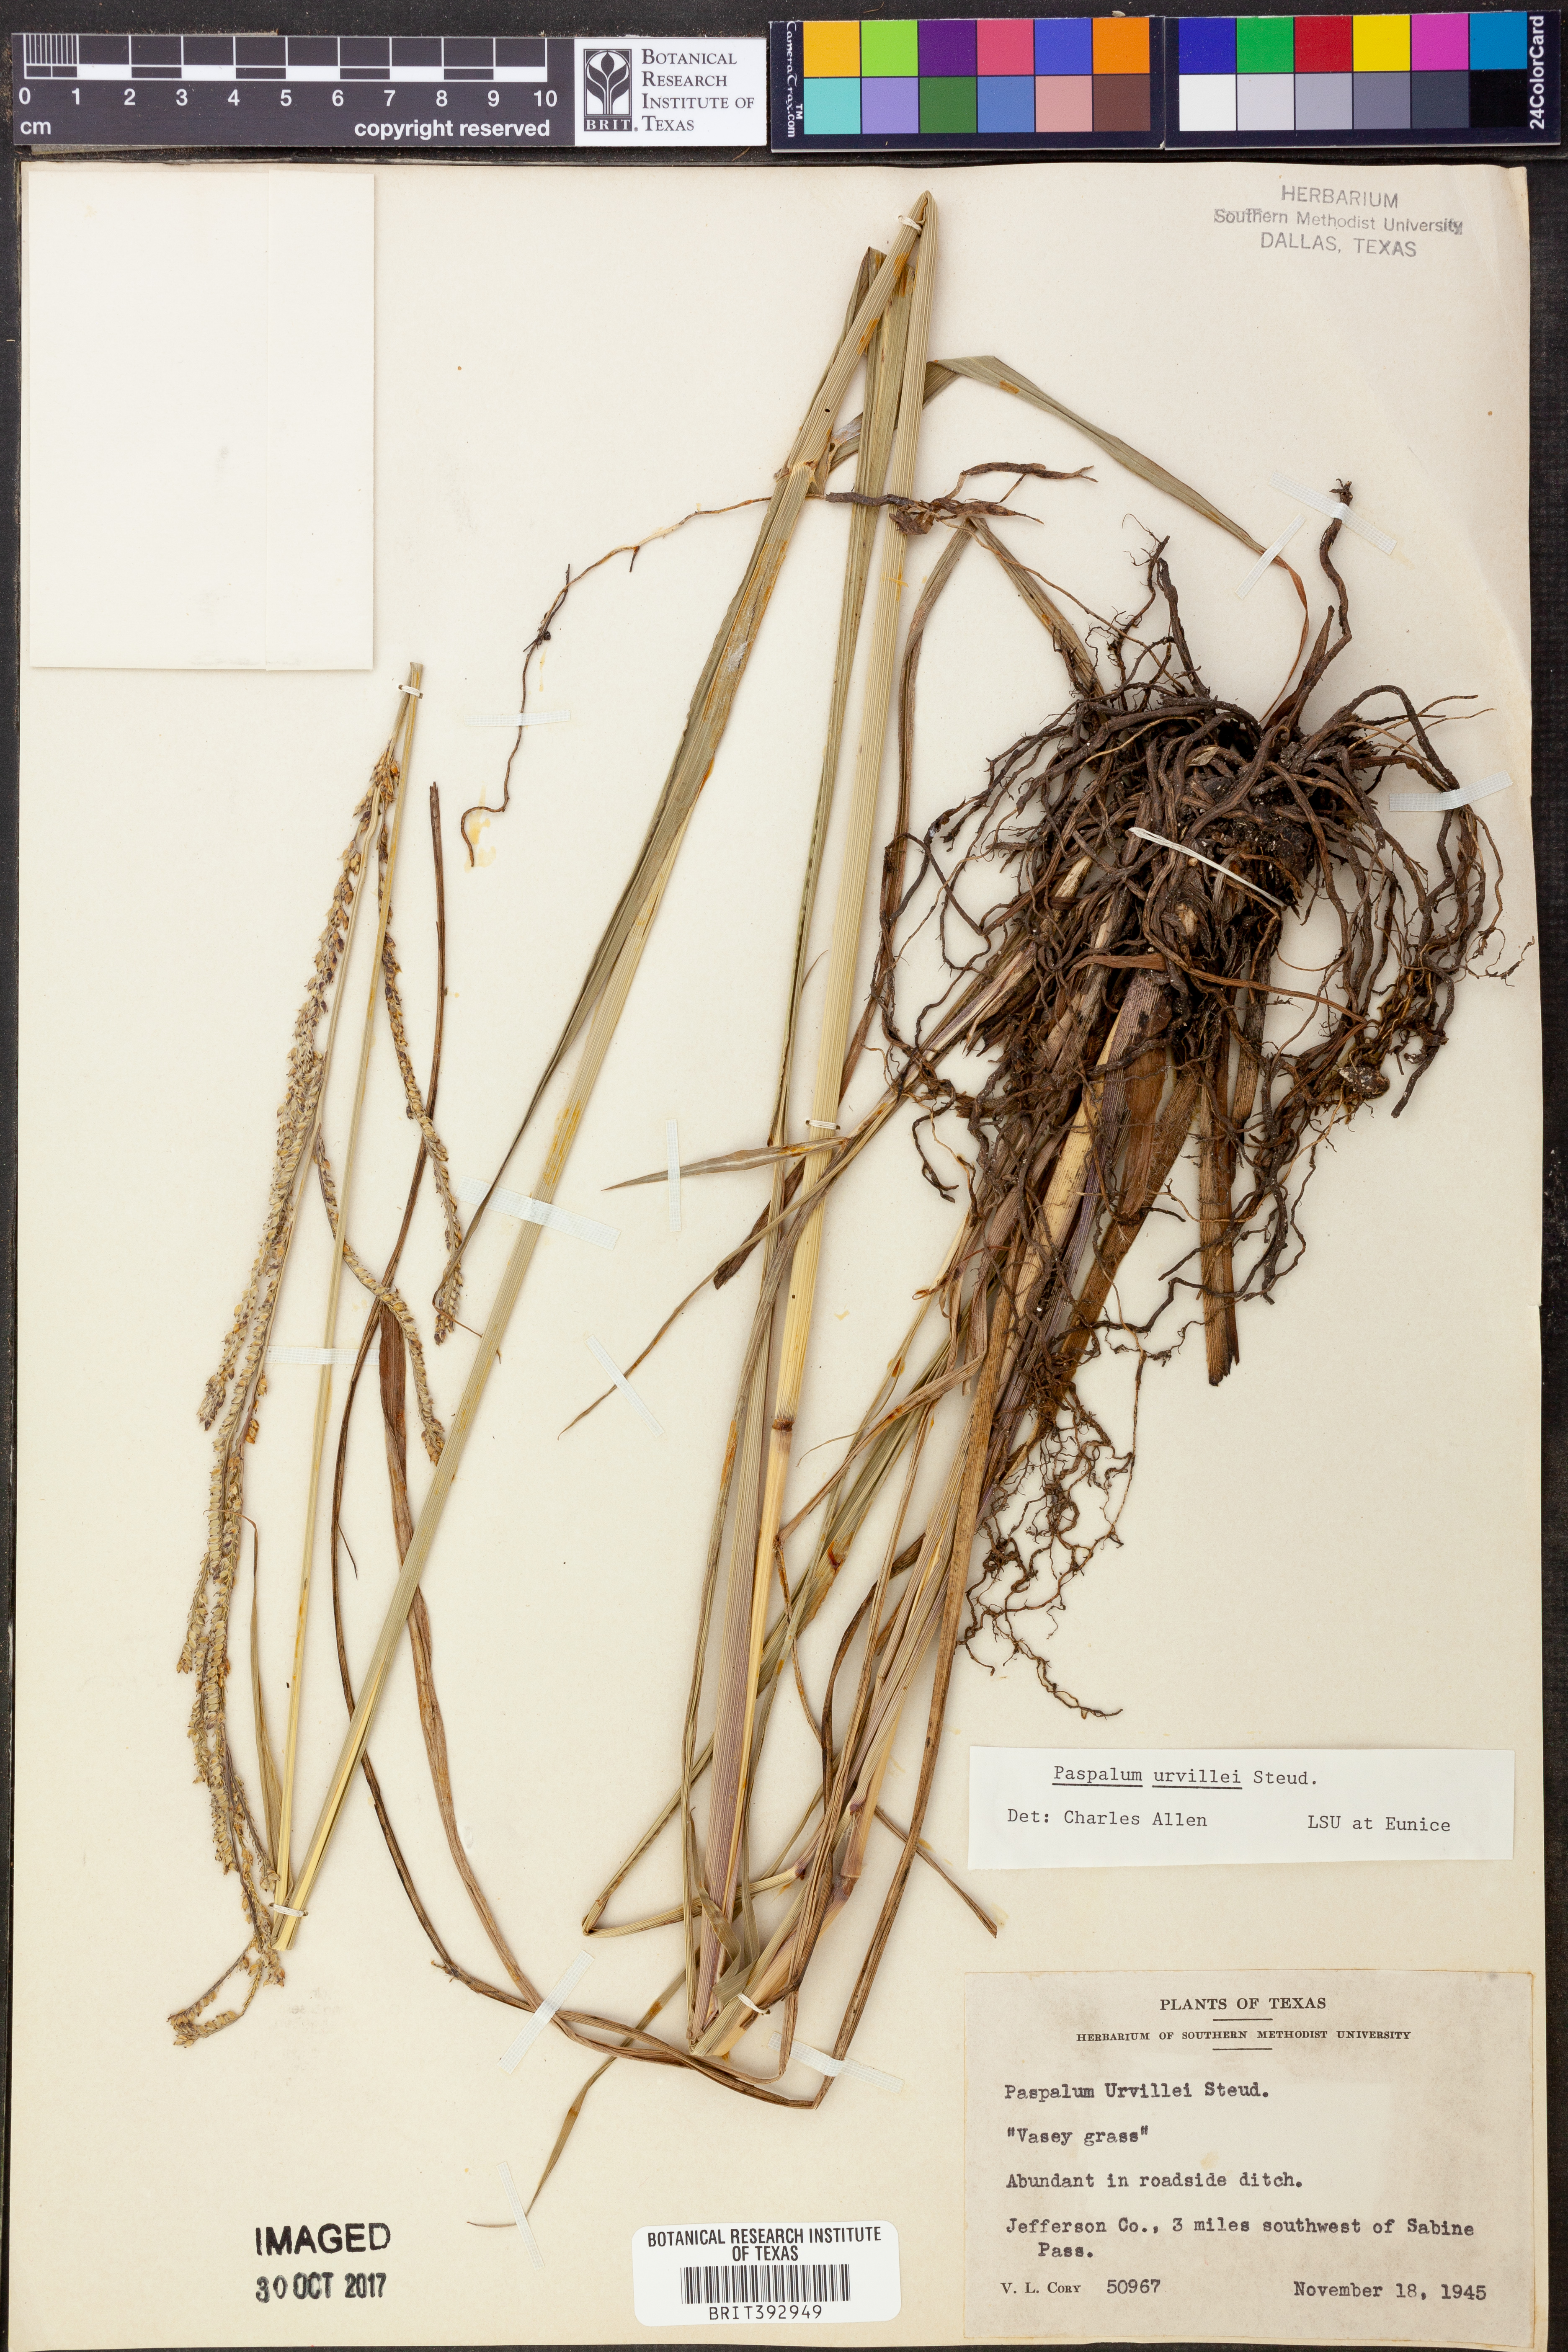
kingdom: Plantae
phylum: Tracheophyta
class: Liliopsida
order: Poales
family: Poaceae
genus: Paspalum
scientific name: Paspalum urvillei
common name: Vasey's grass
